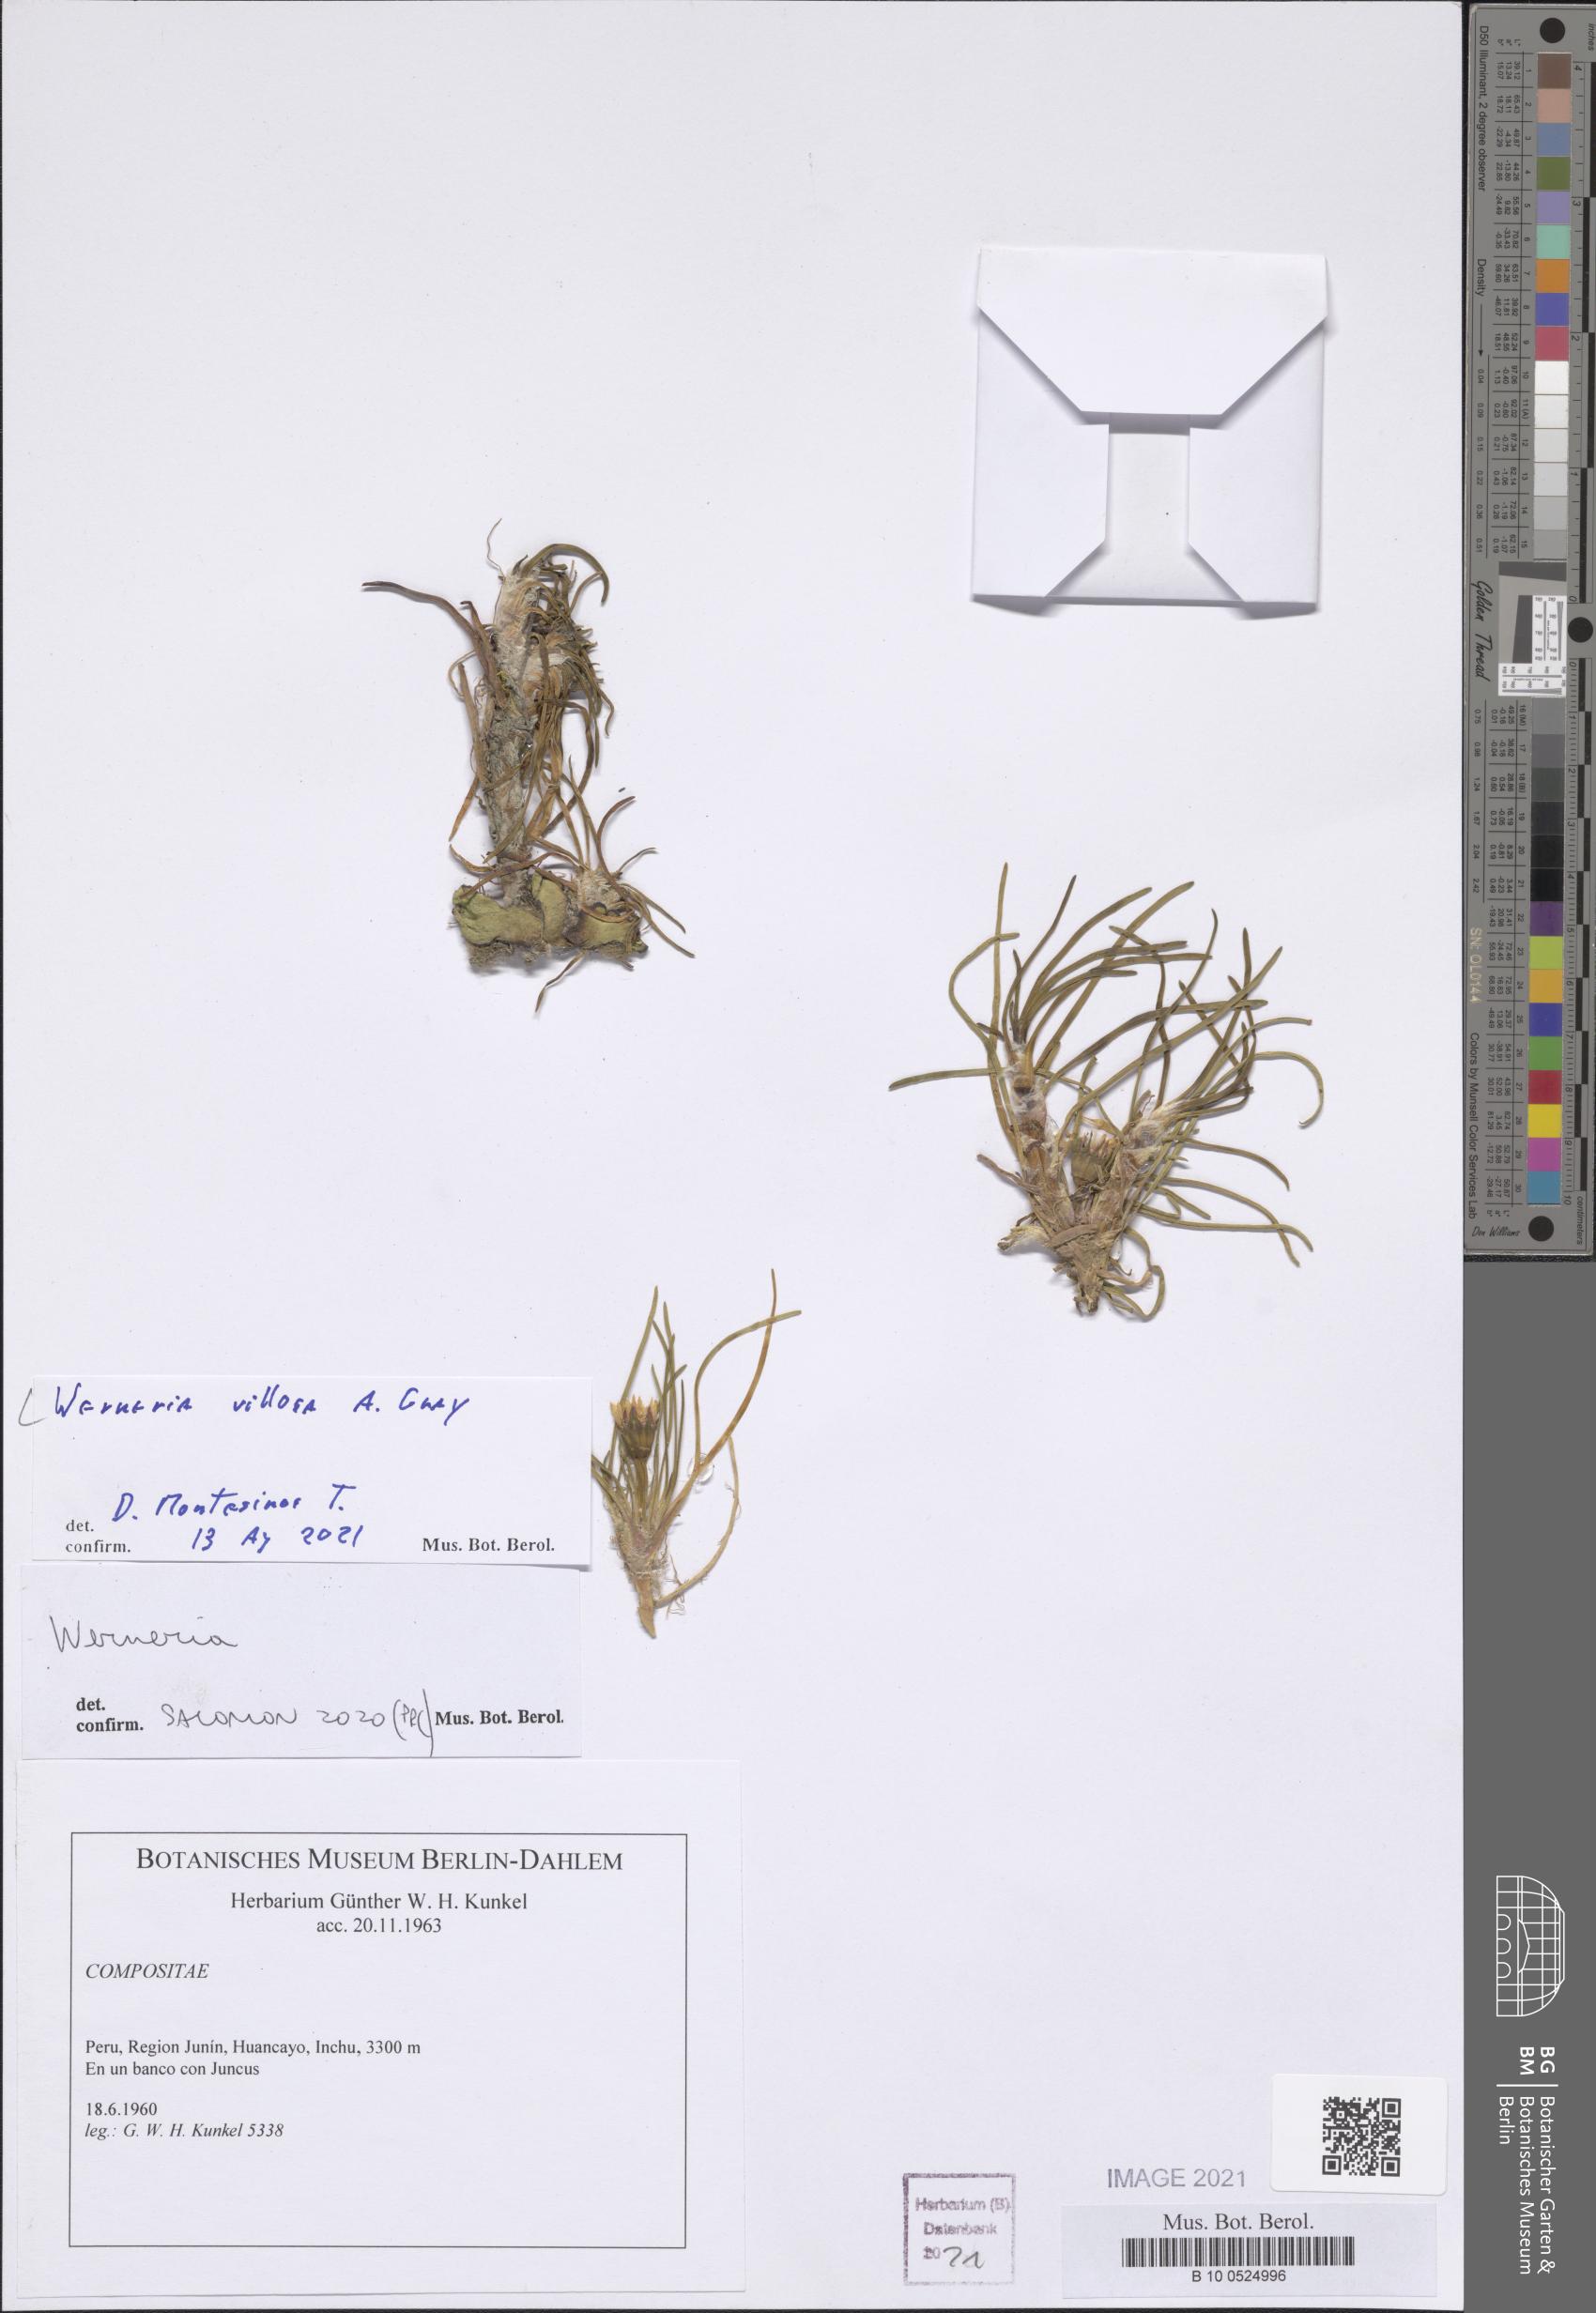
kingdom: Plantae
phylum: Tracheophyta
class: Magnoliopsida
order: Asterales
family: Asteraceae
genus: Rockhausenia
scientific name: Rockhausenia villosa
